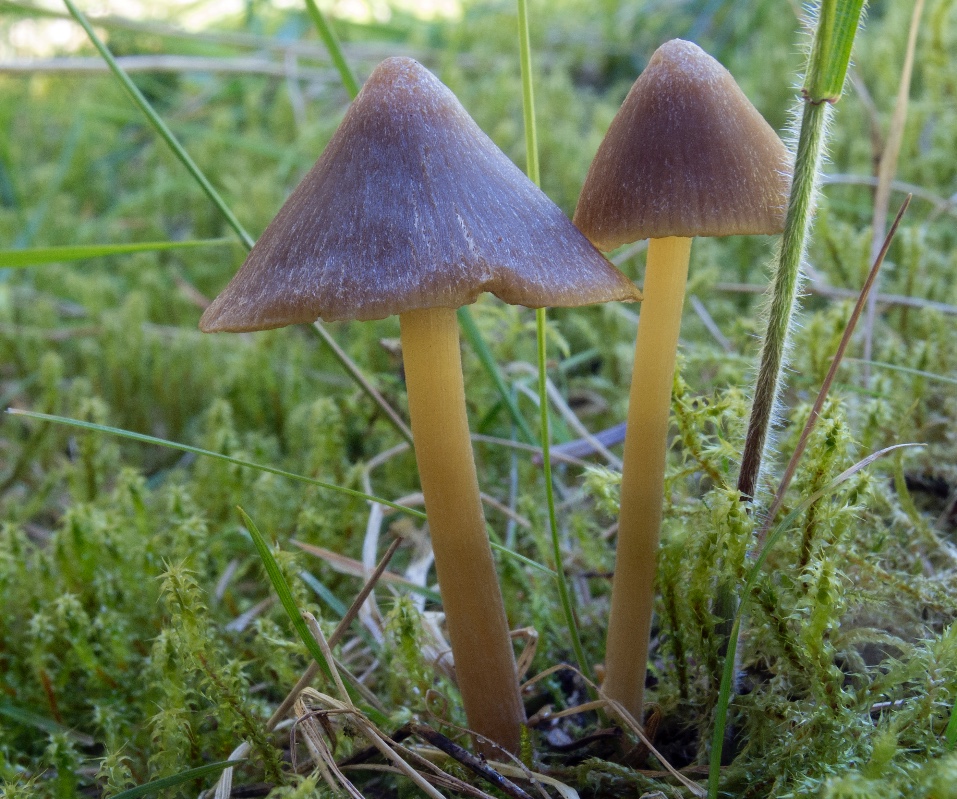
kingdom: Fungi
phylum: Basidiomycota
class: Agaricomycetes
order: Agaricales
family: Entolomataceae
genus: Entoloma
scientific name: Entoloma vernum
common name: vår-rødblad
